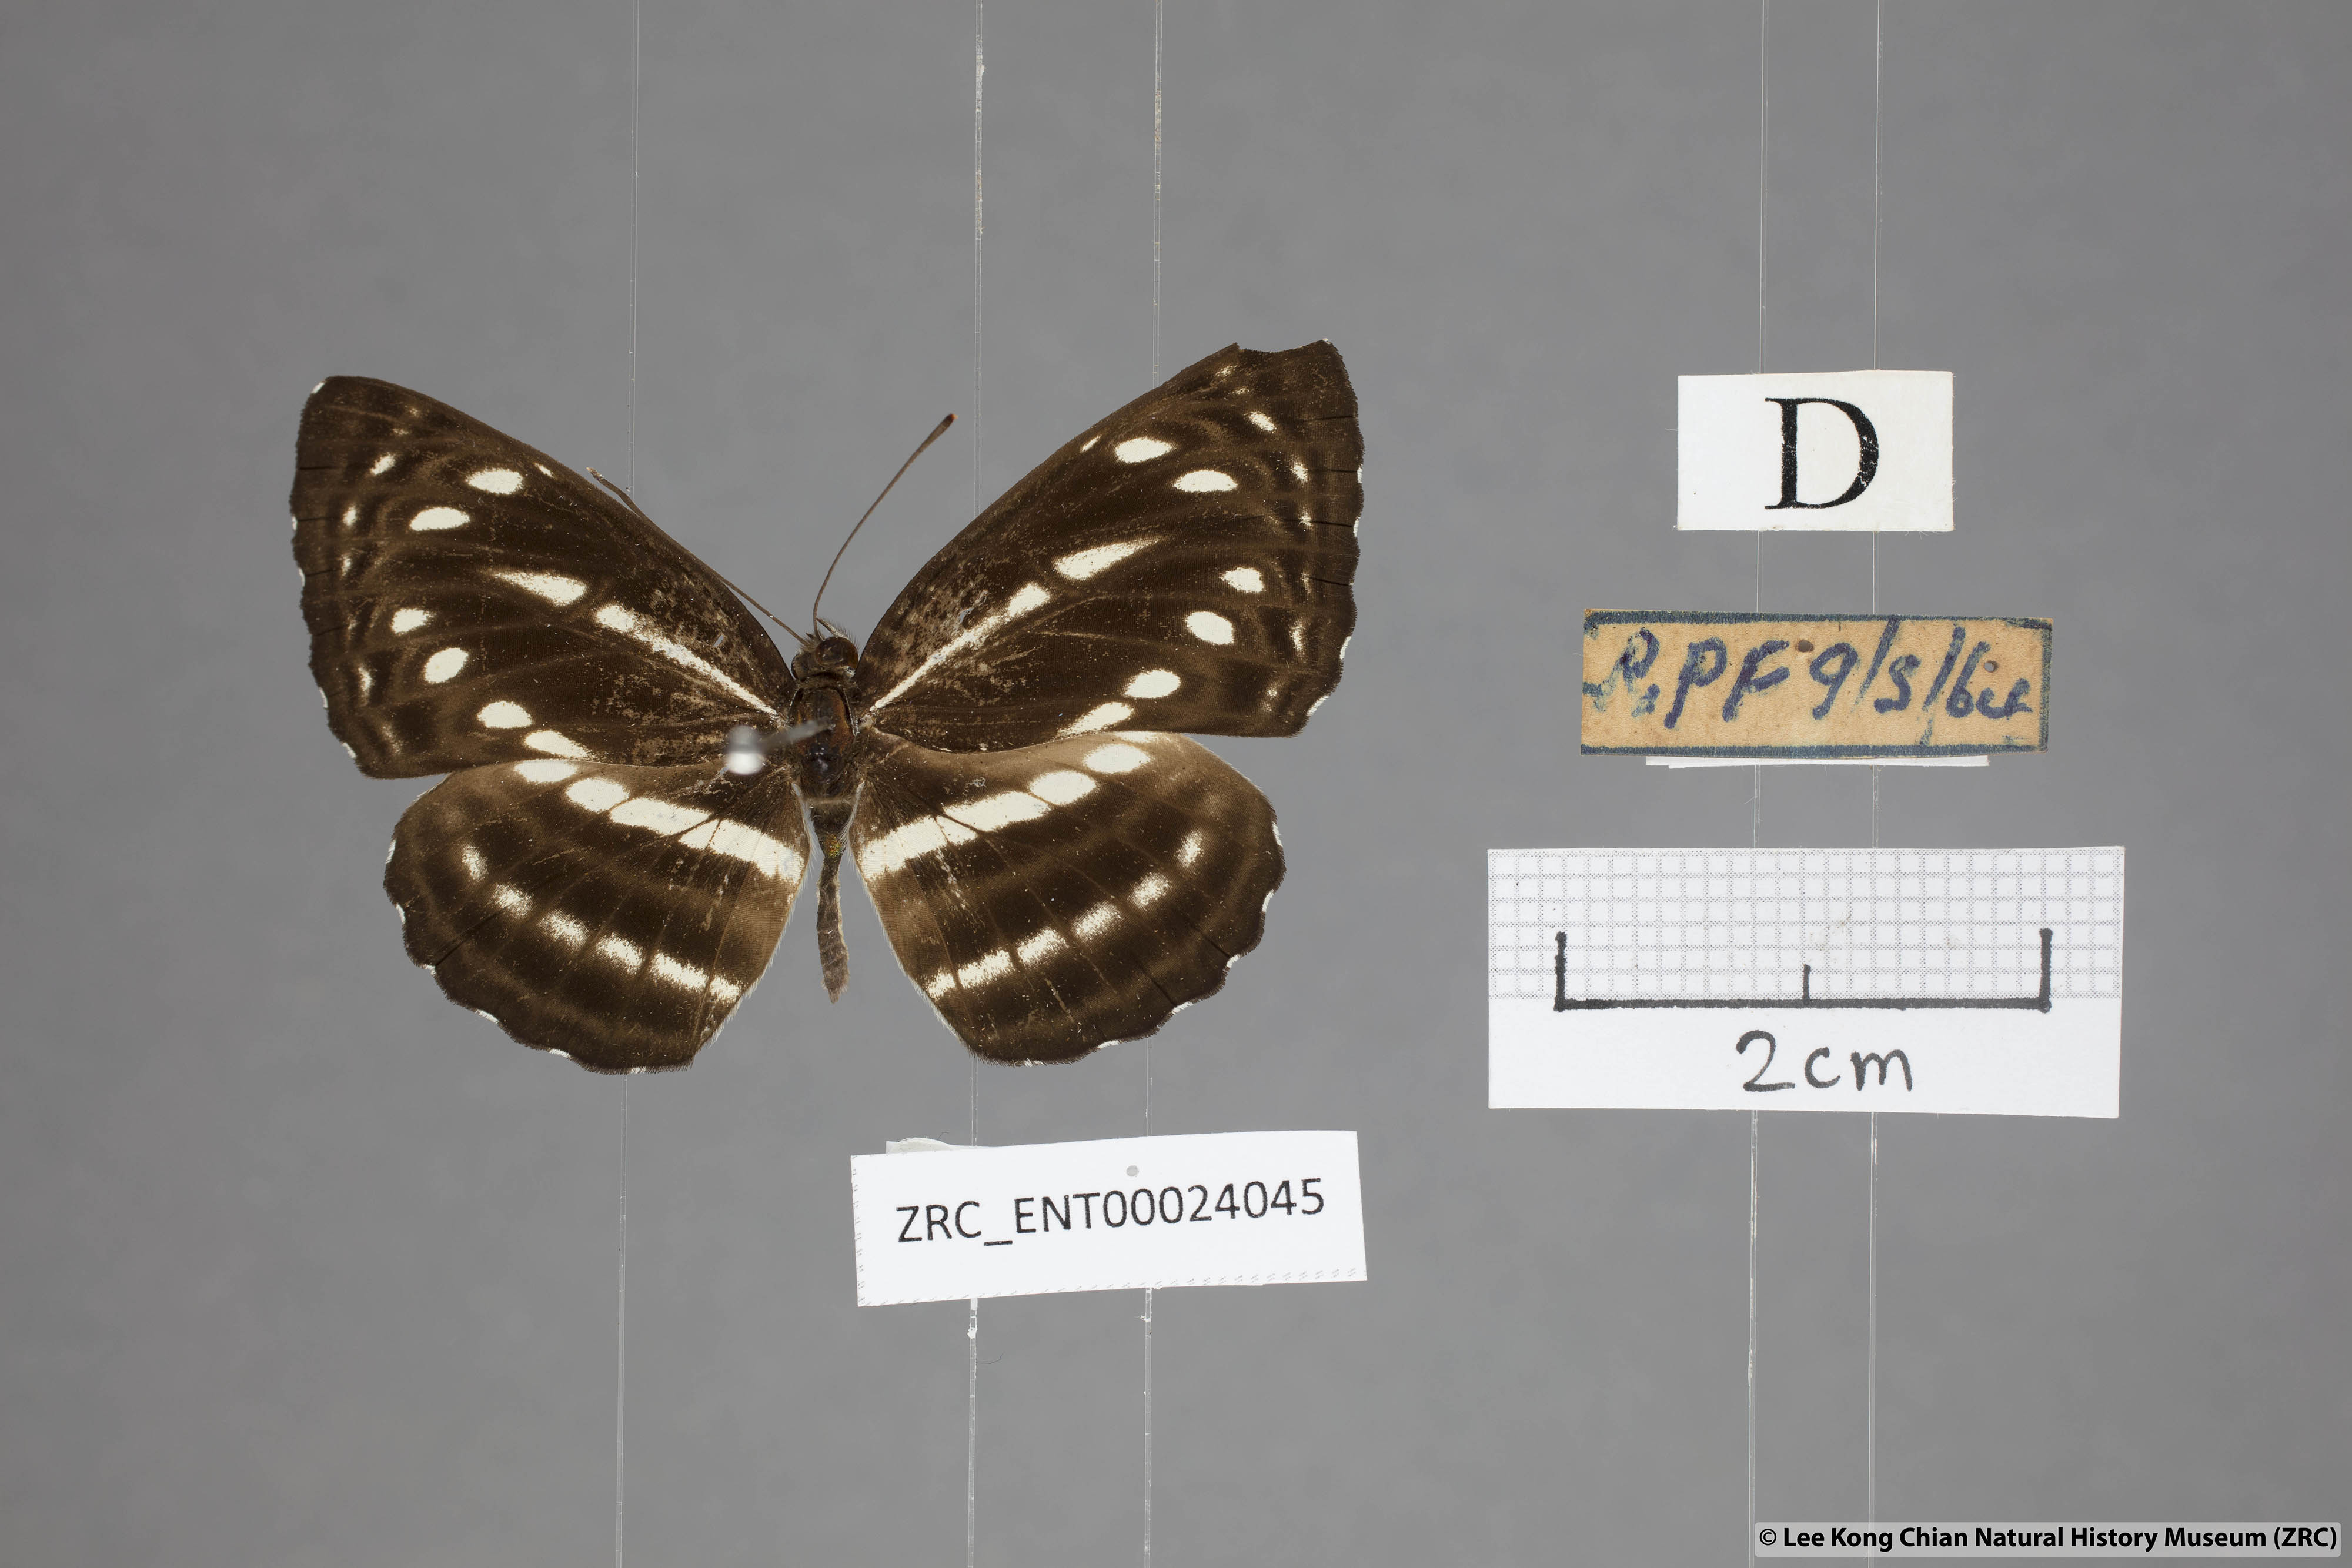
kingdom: Animalia
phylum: Arthropoda
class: Insecta
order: Lepidoptera
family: Nymphalidae
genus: Neptis
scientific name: Neptis nata
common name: Sullied brown sailer
